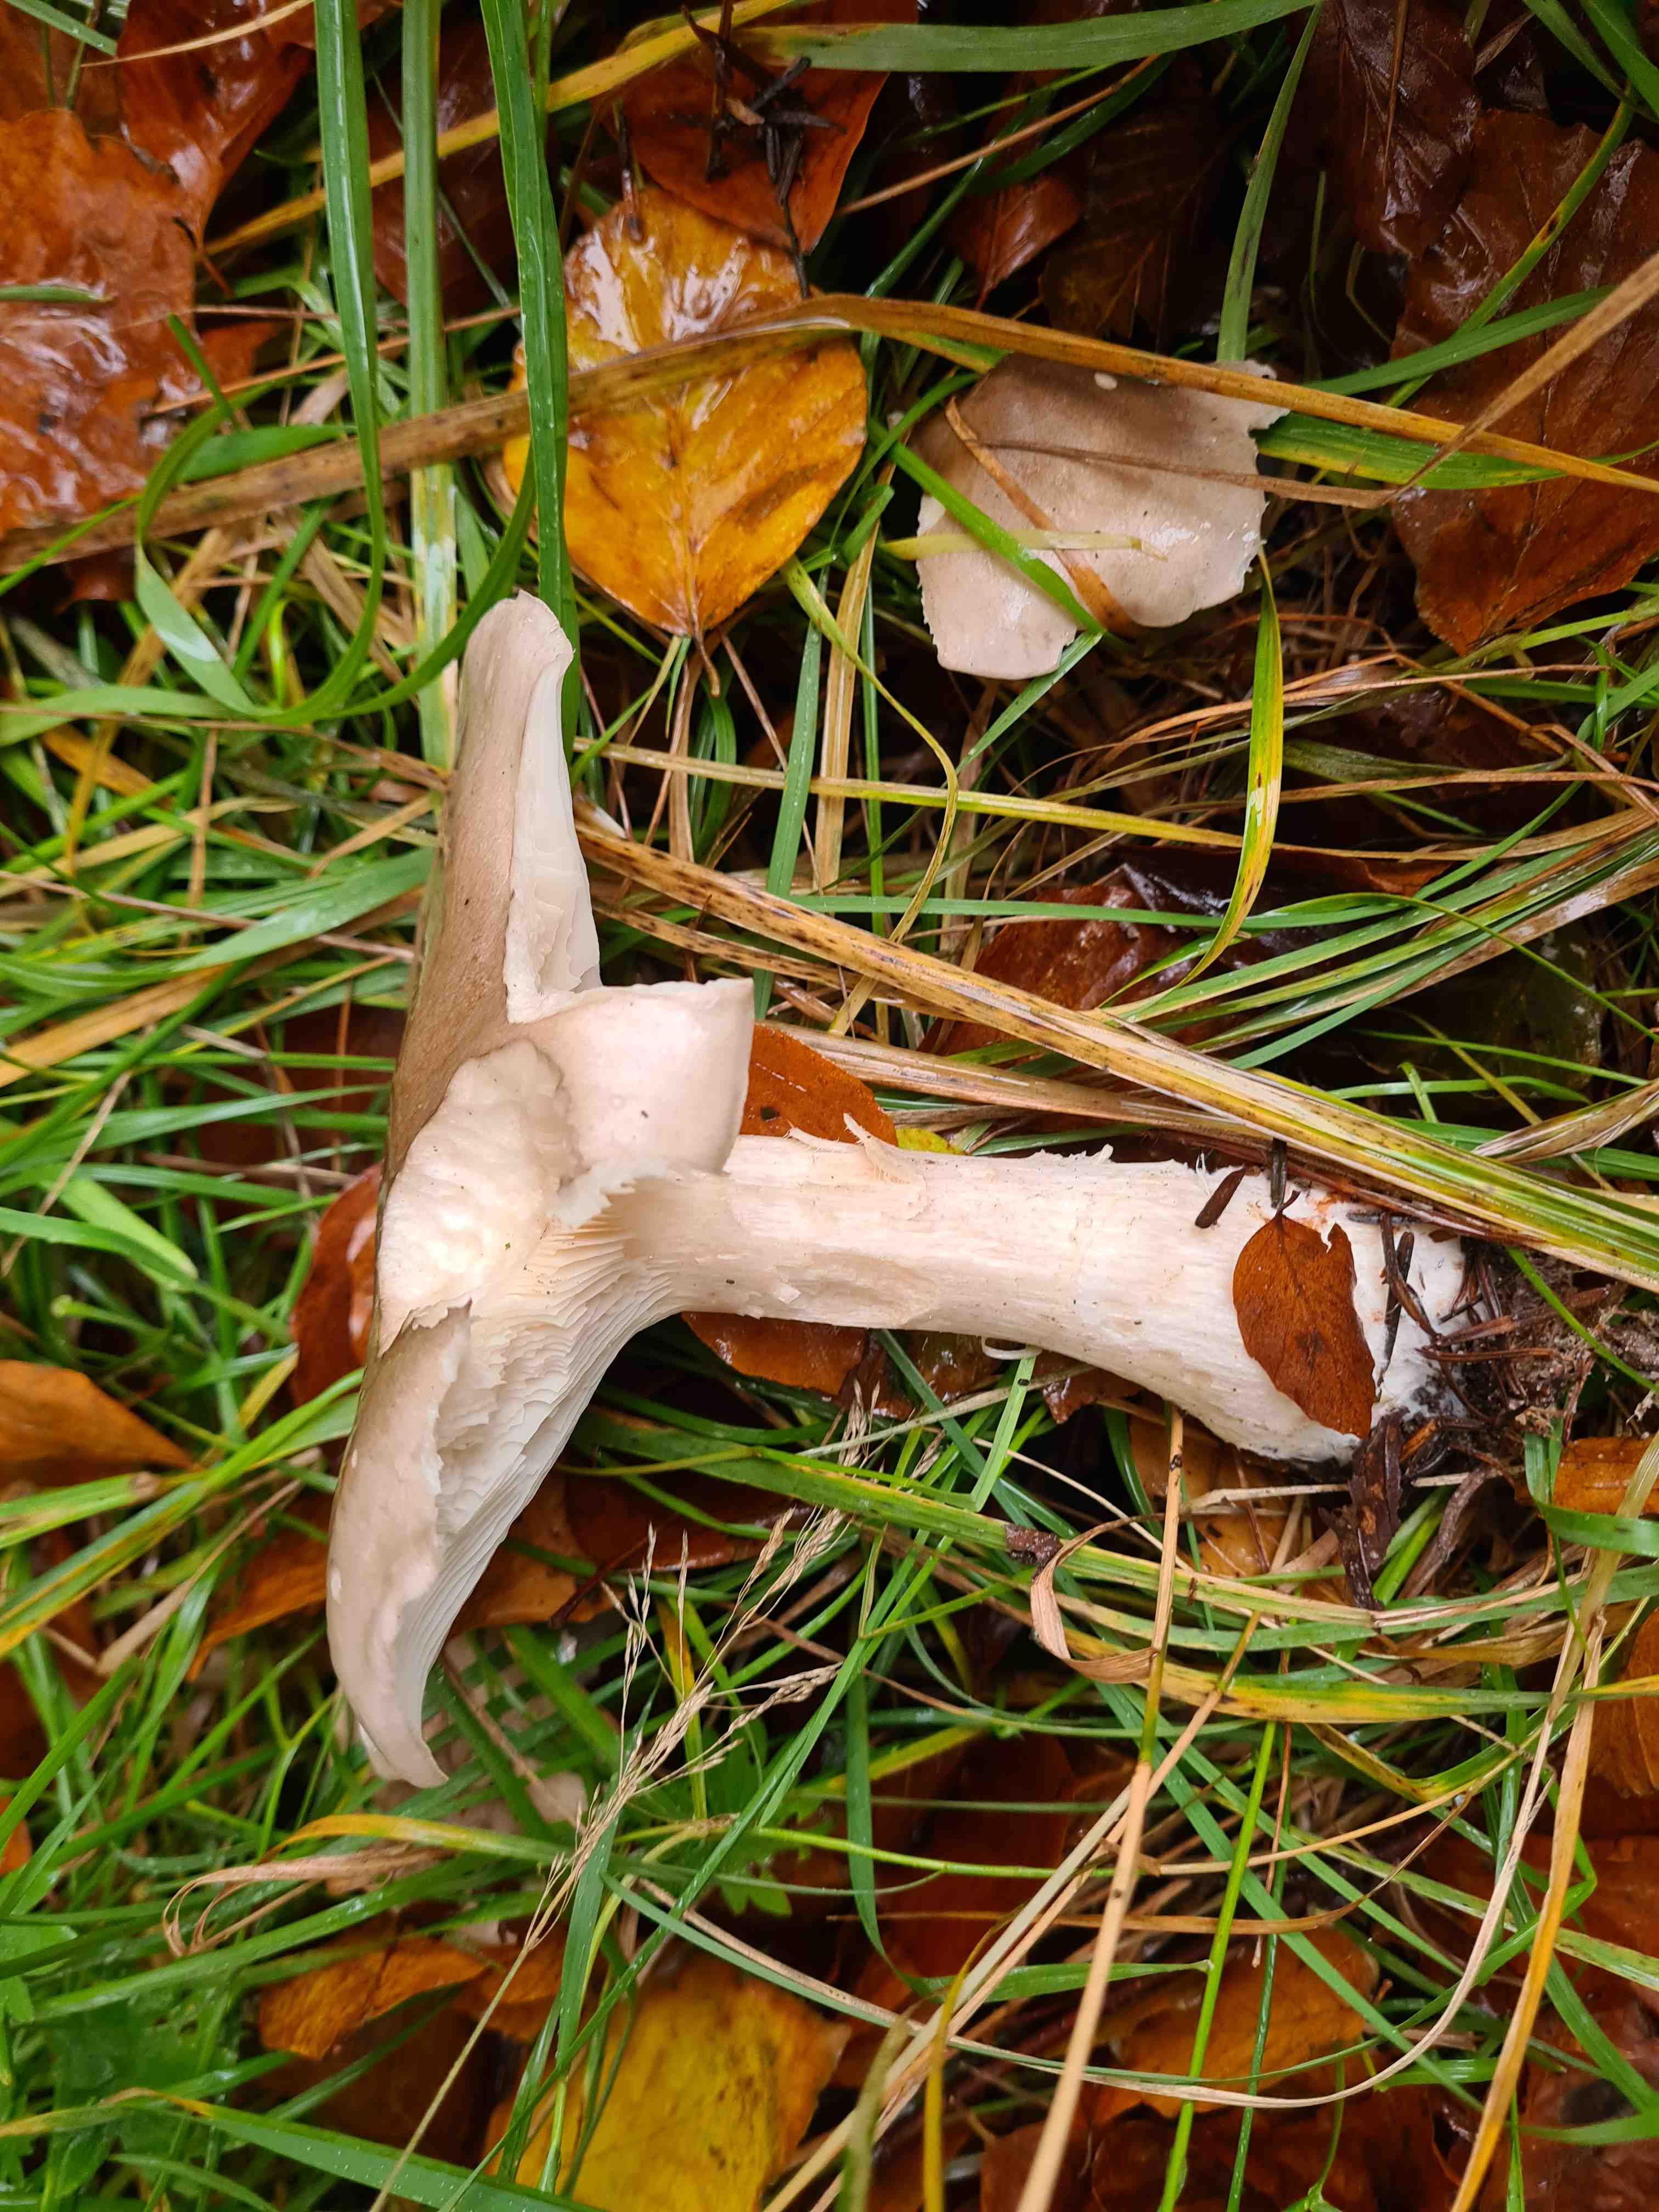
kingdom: Fungi
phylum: Basidiomycota
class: Agaricomycetes
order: Agaricales
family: Tricholomataceae
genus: Clitocybe
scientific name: Clitocybe nebularis
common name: tåge-tragthat
